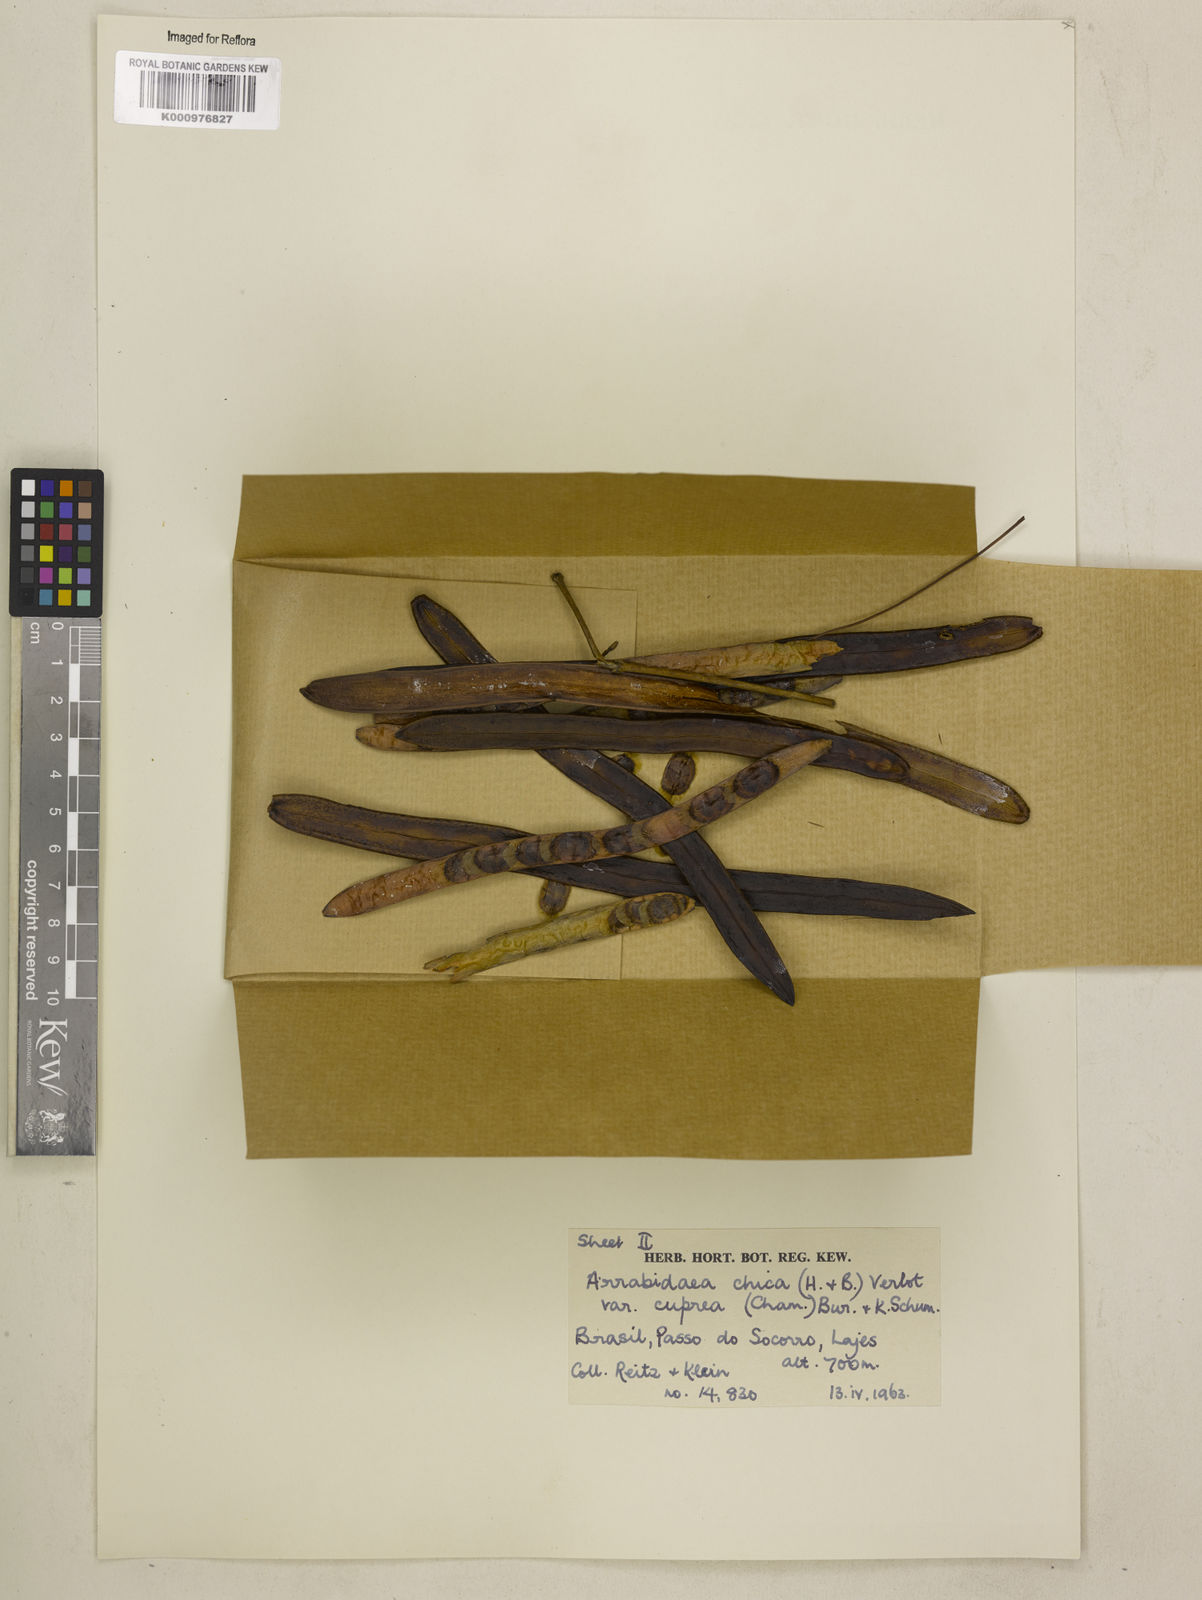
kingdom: Plantae
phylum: Tracheophyta
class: Magnoliopsida
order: Lamiales
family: Bignoniaceae
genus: Fridericia
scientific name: Fridericia chica
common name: Cricketvine
